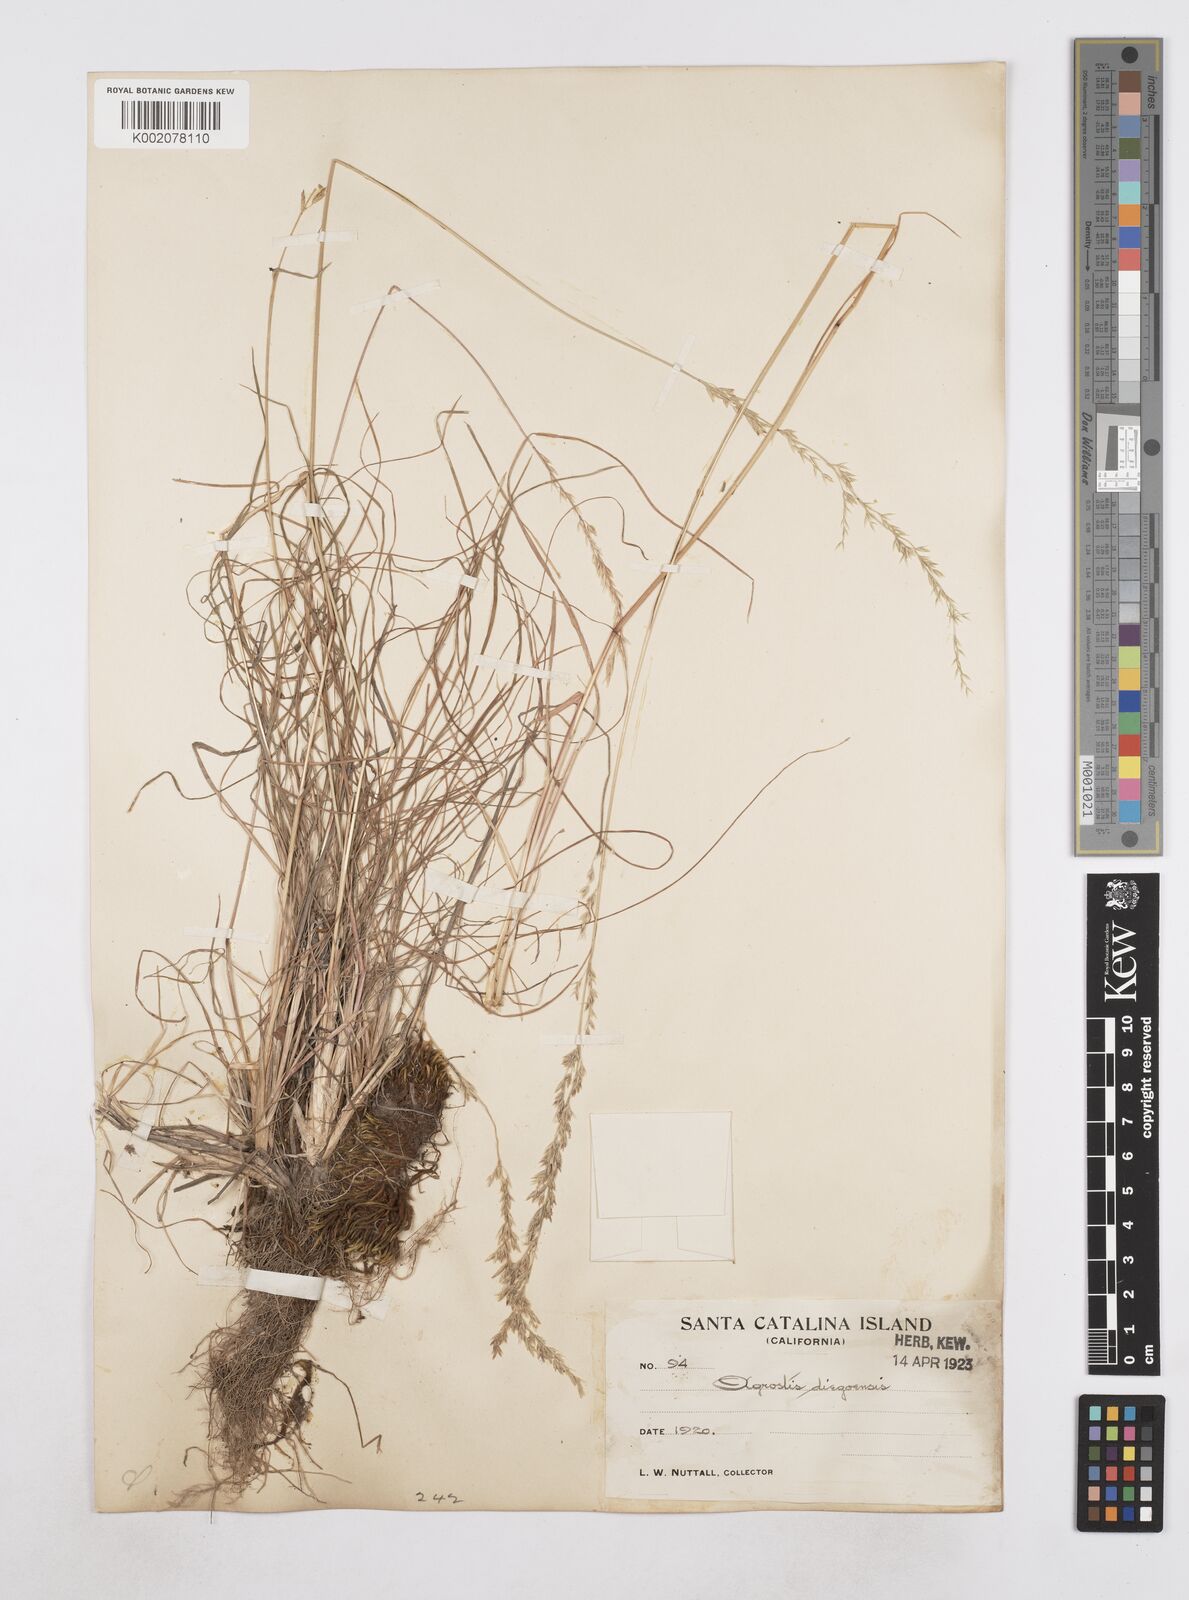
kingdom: Plantae
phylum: Tracheophyta
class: Liliopsida
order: Poales
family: Poaceae
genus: Poa
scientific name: Poa
